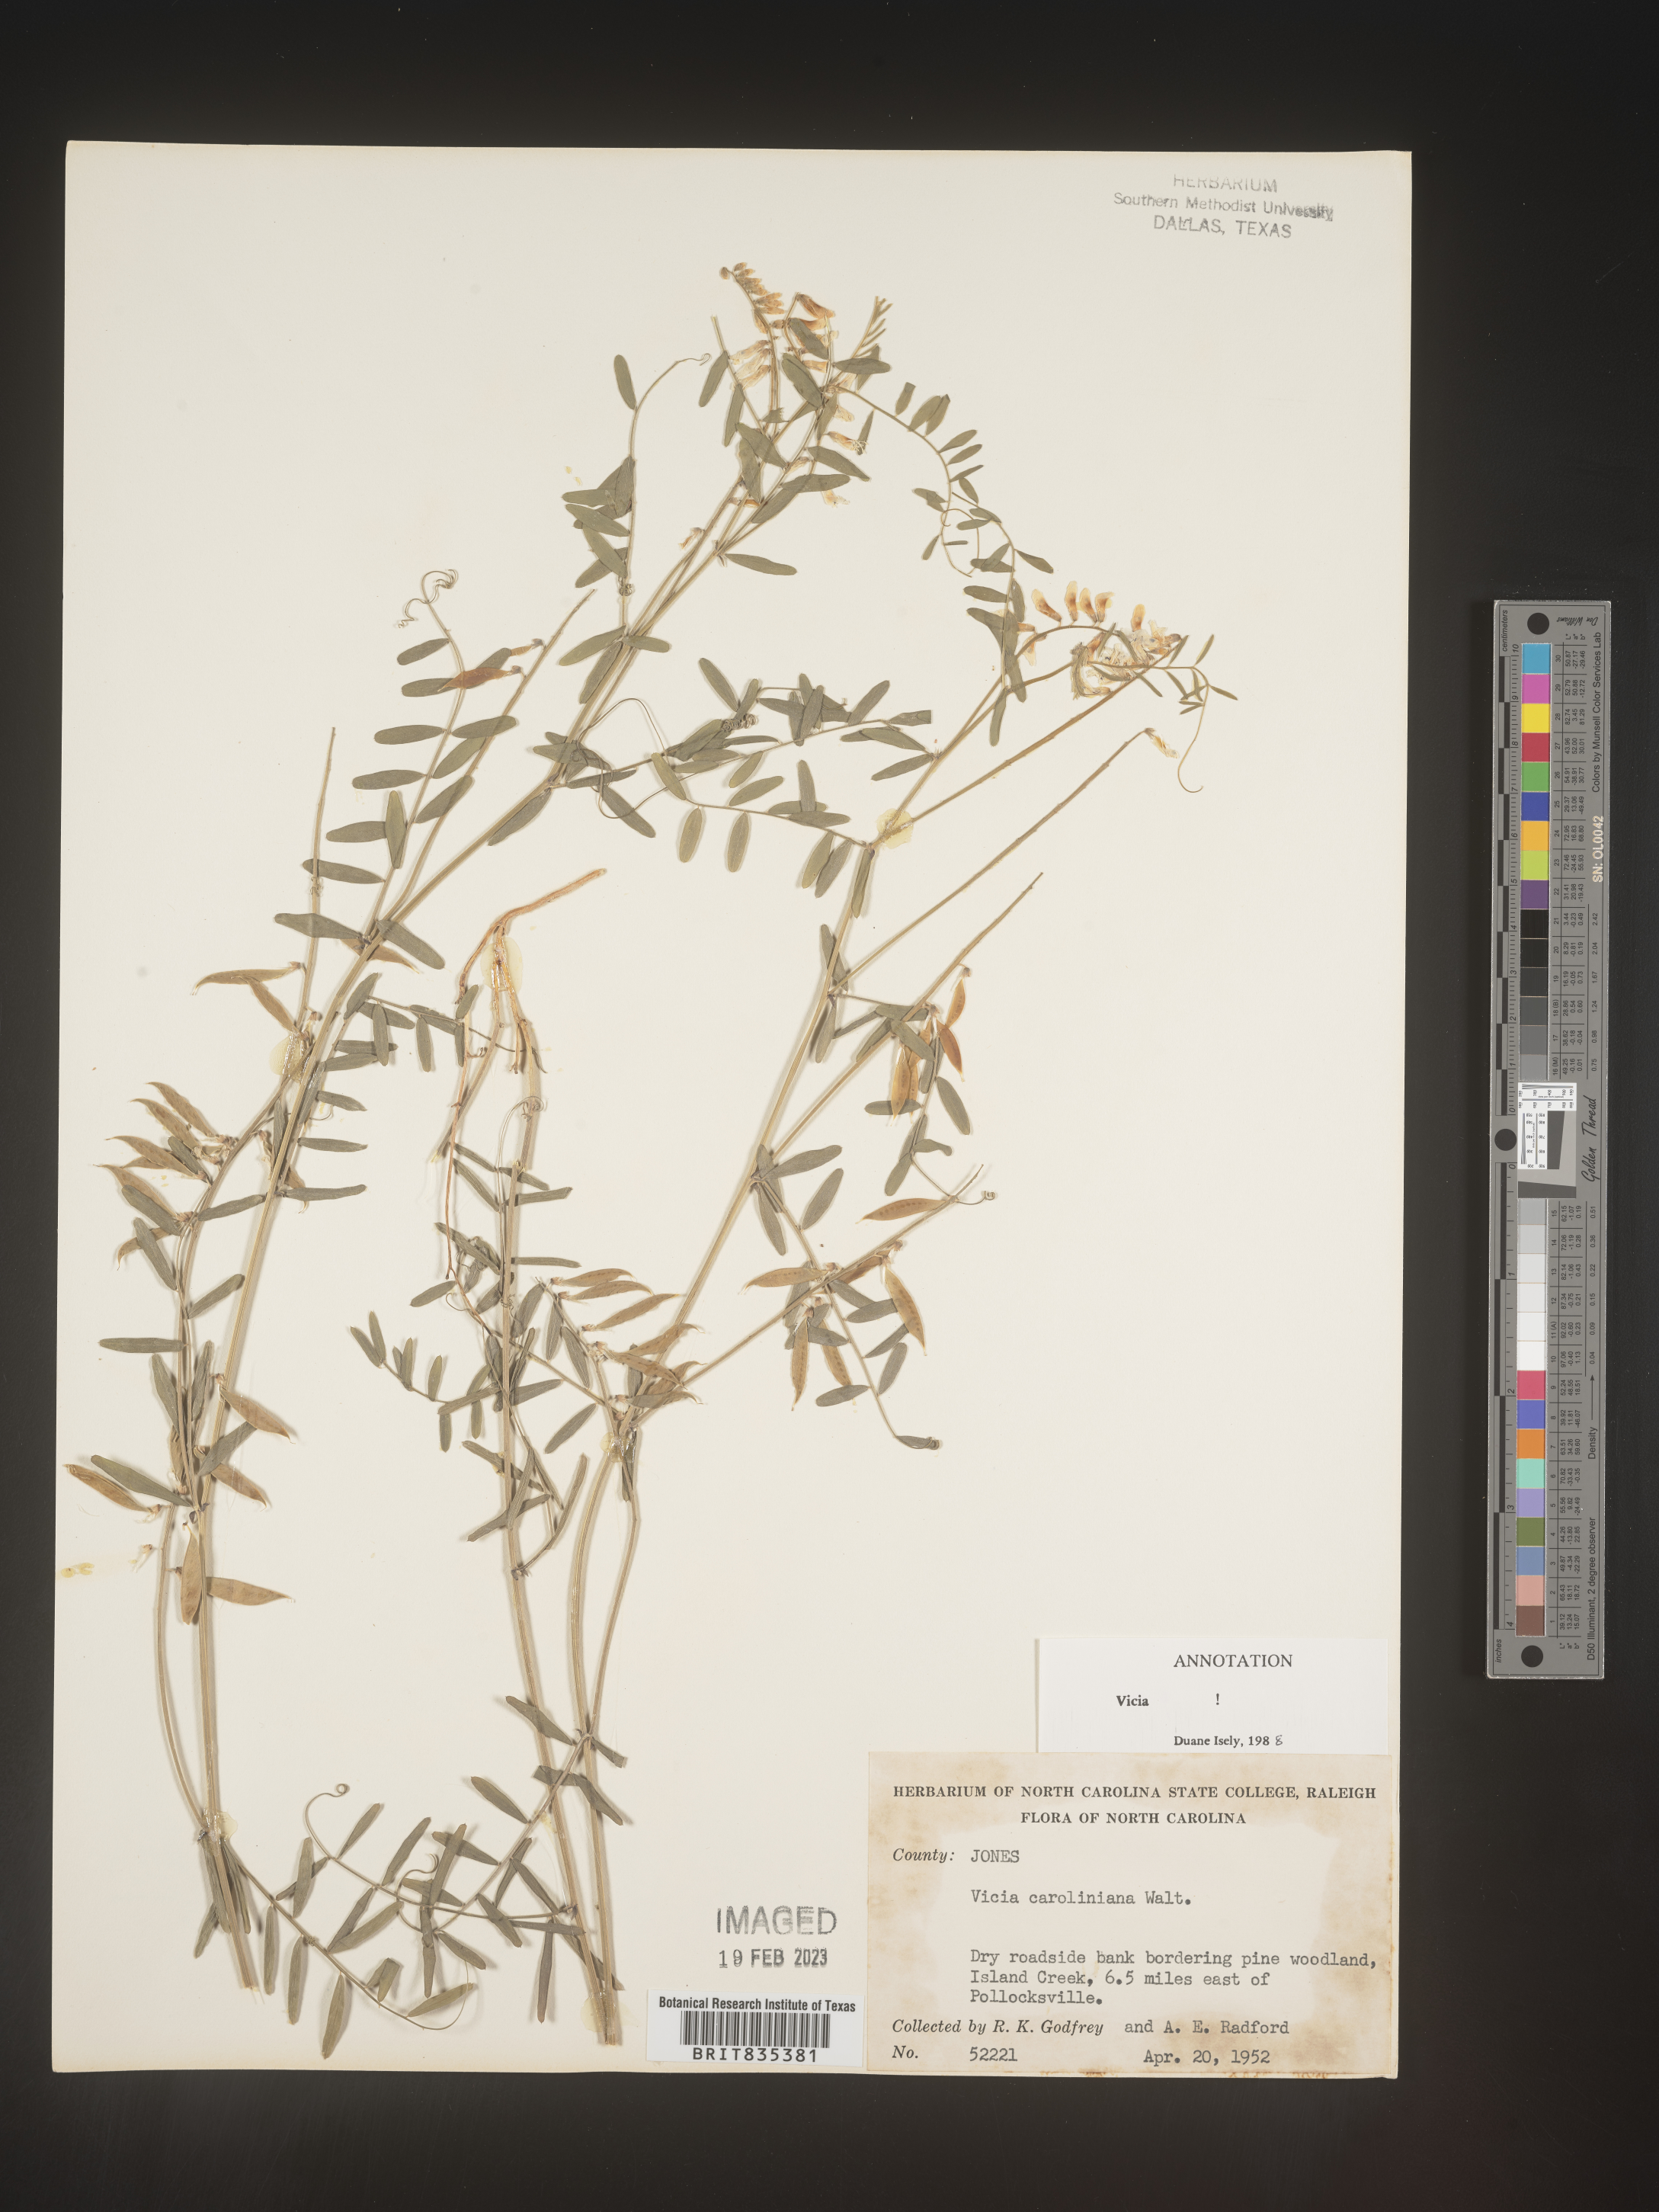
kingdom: Plantae
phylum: Tracheophyta
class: Magnoliopsida
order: Fabales
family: Fabaceae
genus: Vicia
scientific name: Vicia caroliniana
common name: Carolina vetch
